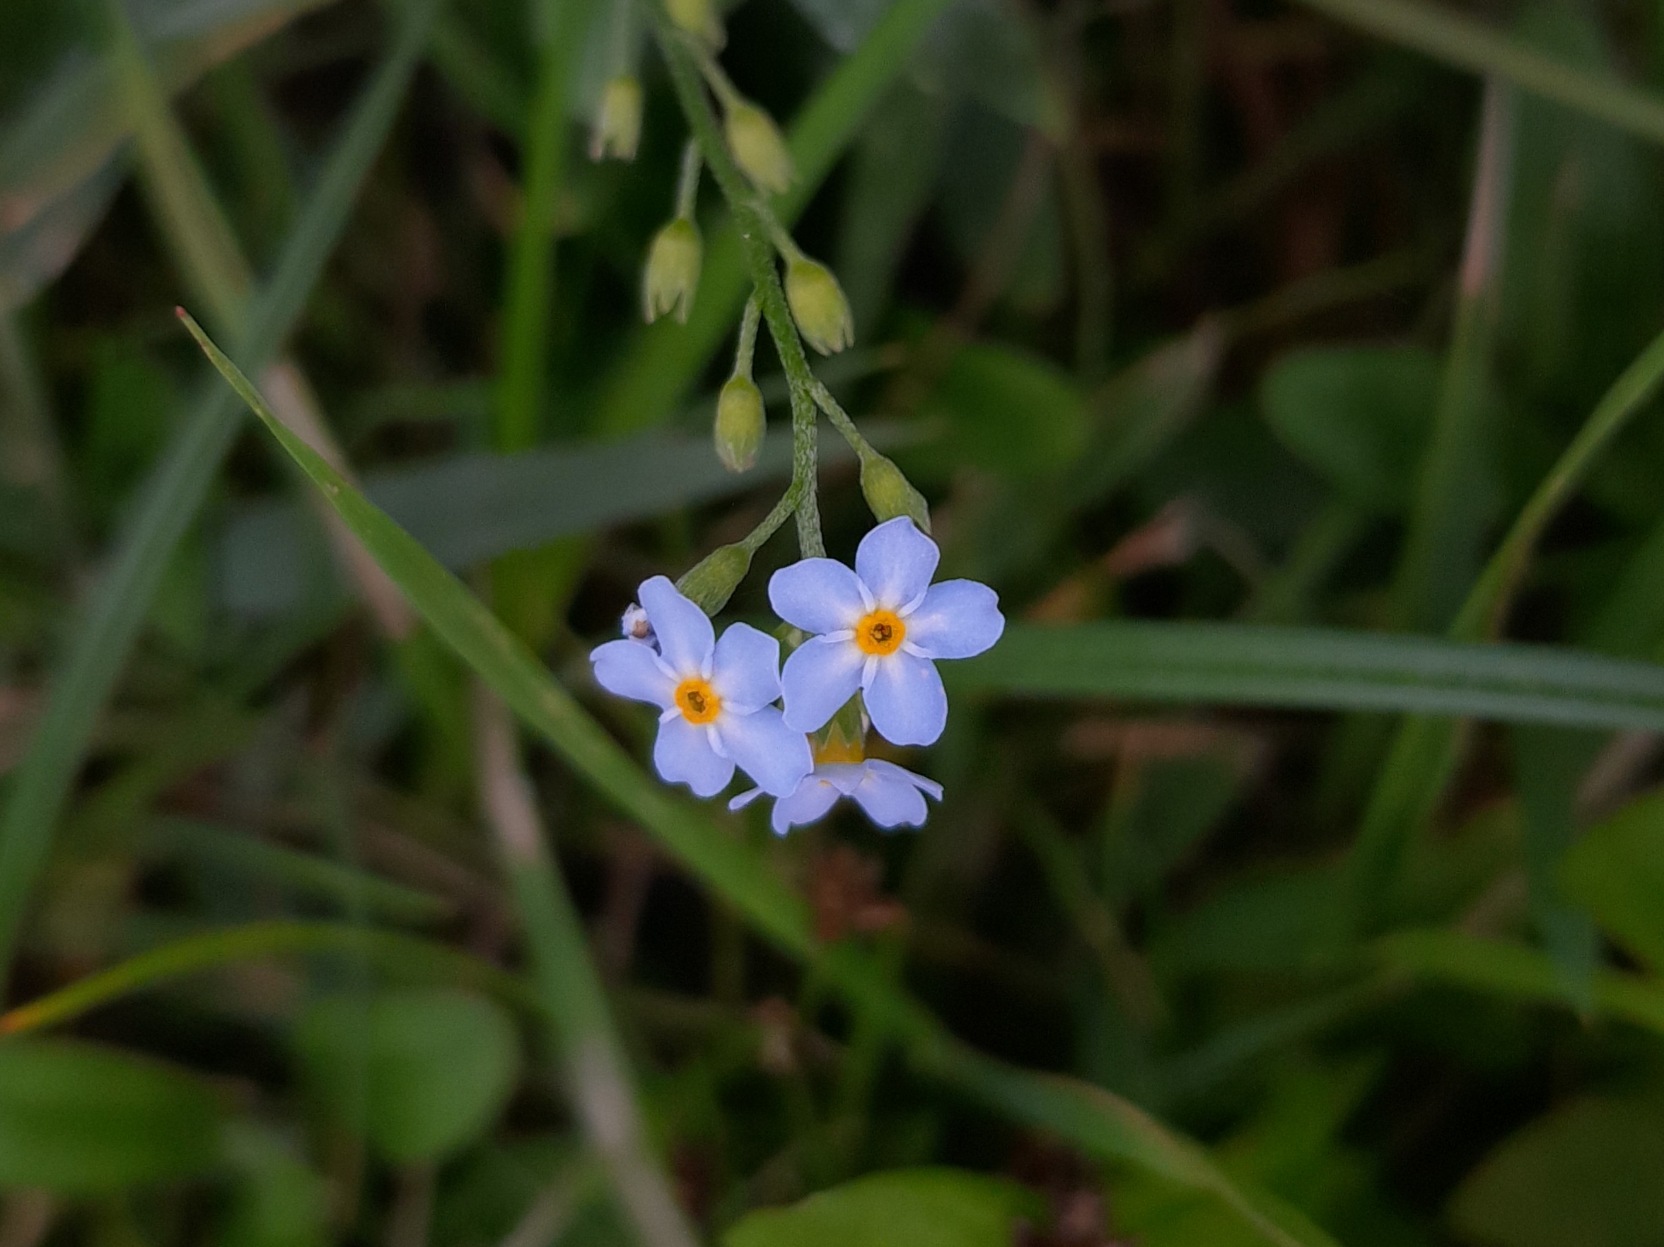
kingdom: Plantae
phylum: Tracheophyta
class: Magnoliopsida
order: Boraginales
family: Boraginaceae
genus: Myosotis
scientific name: Myosotis scorpioides
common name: Eng-forglemmigej
